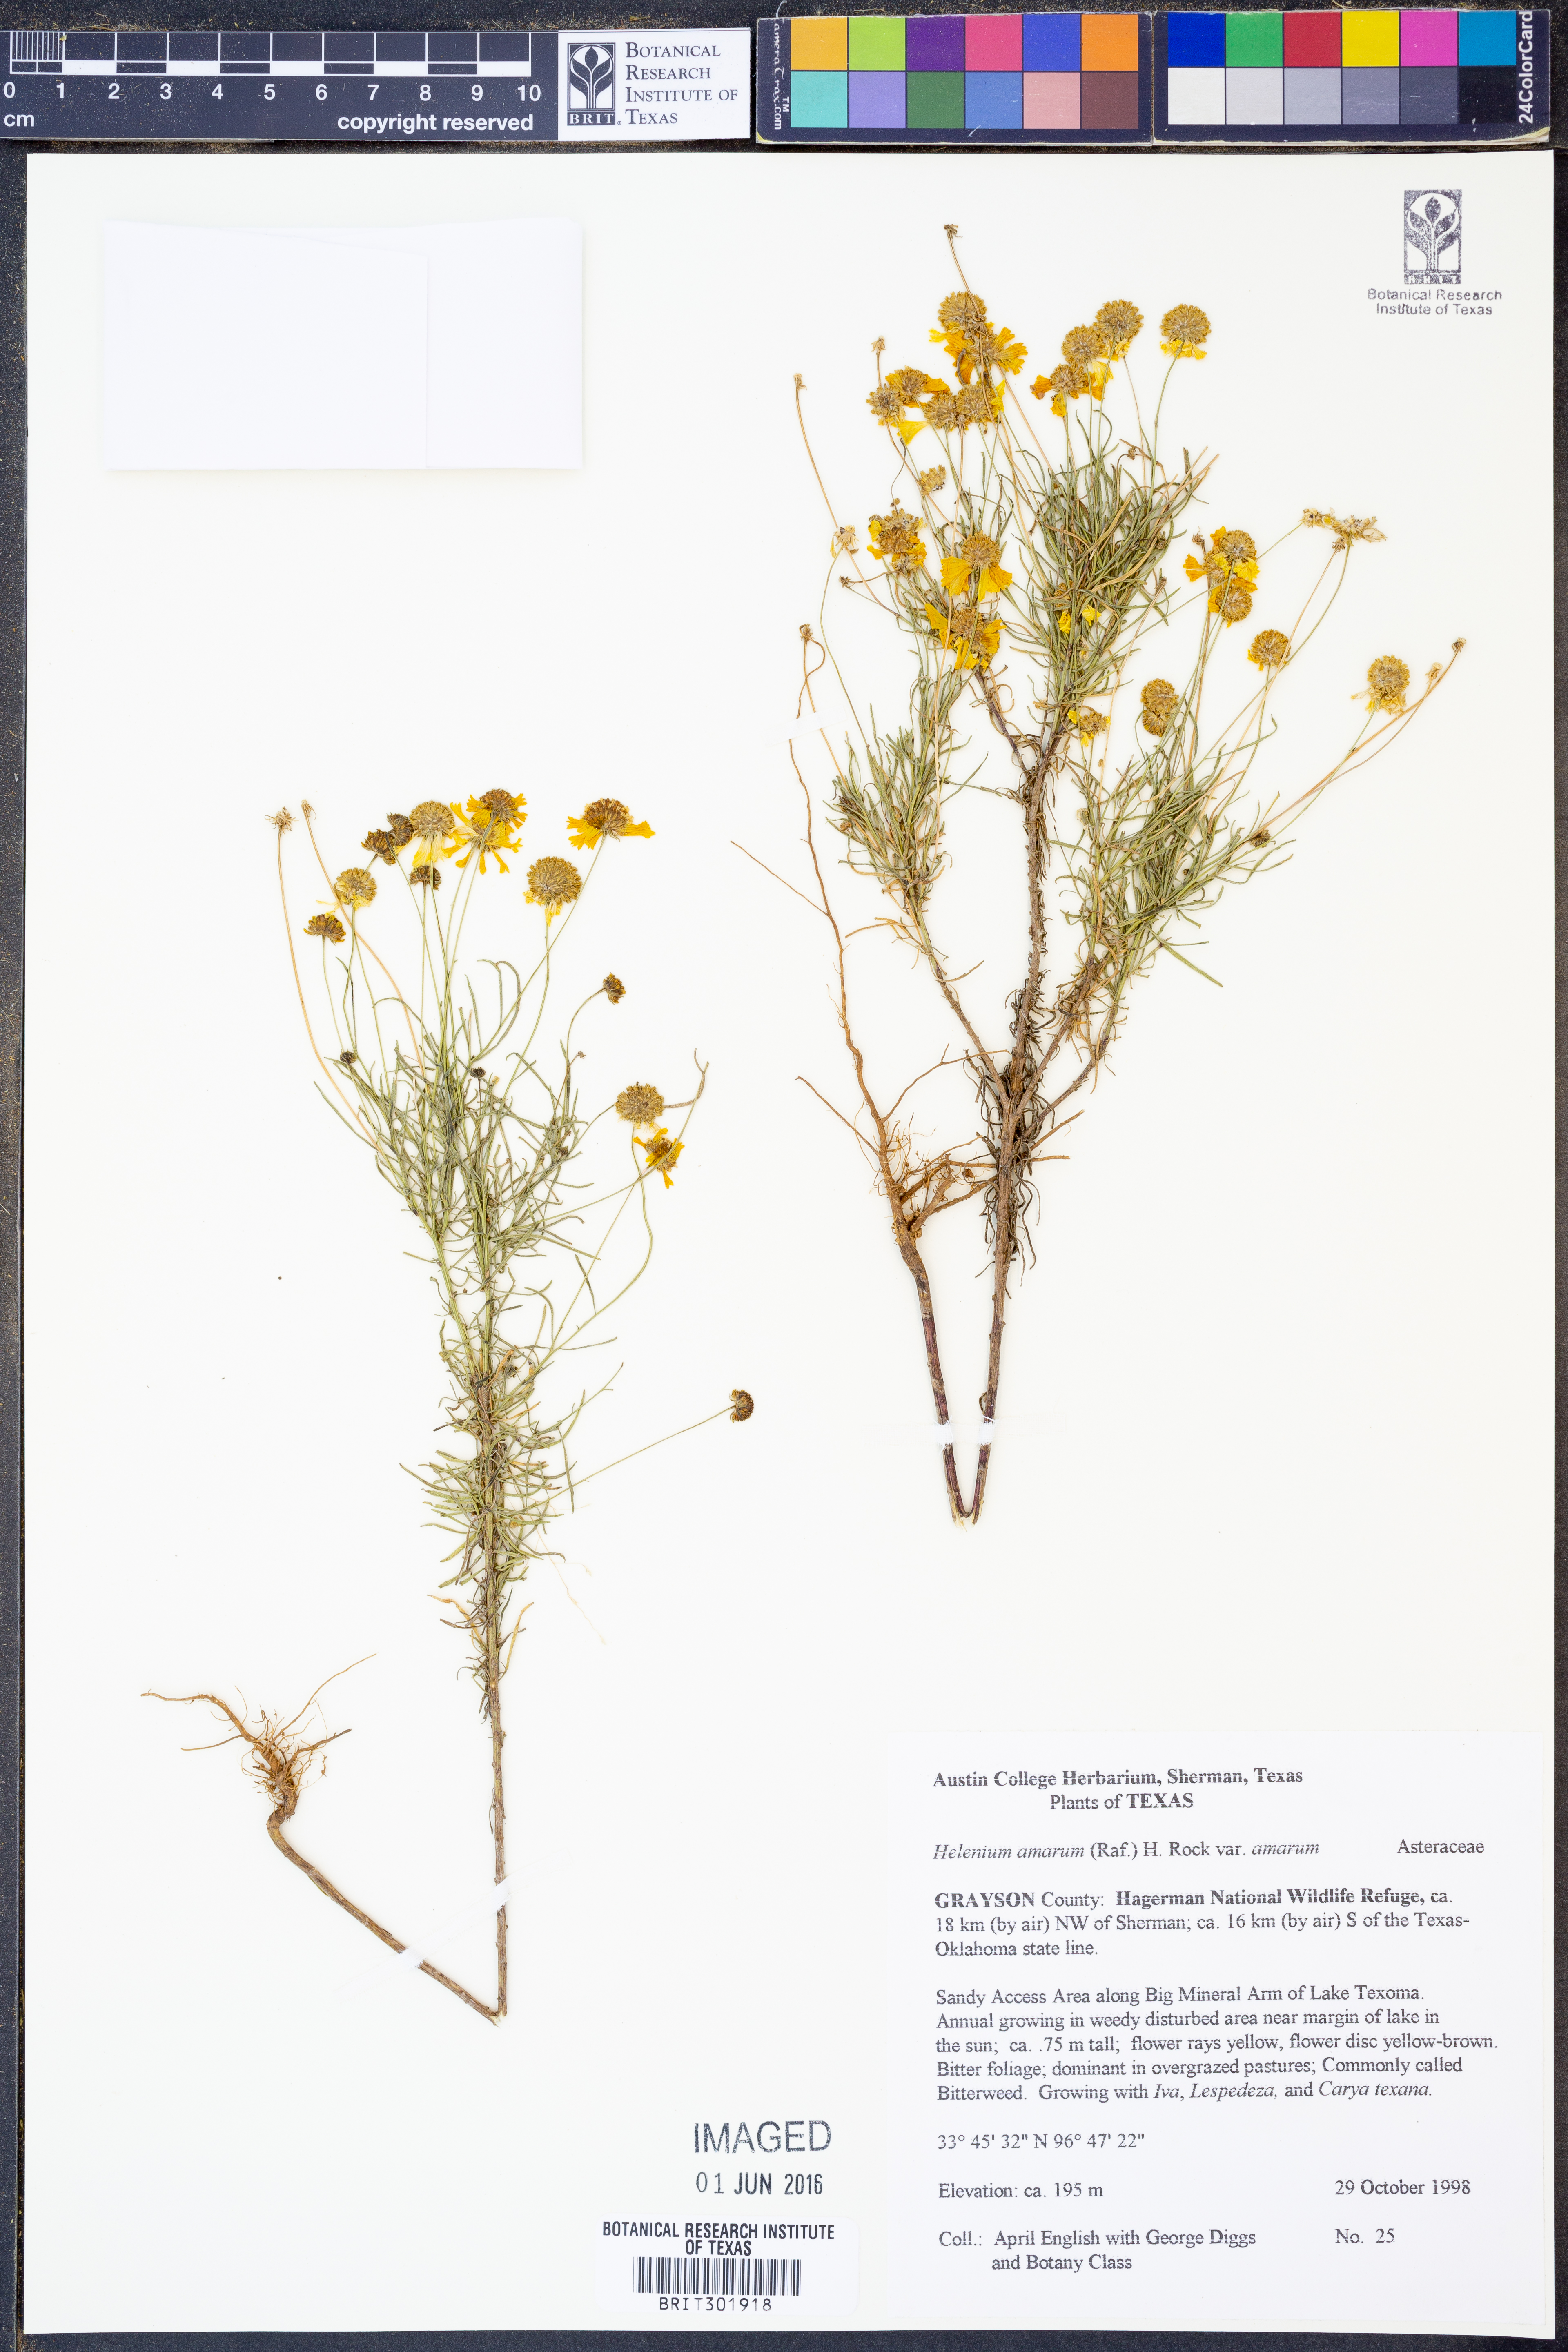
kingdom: Plantae
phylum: Tracheophyta
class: Magnoliopsida
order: Asterales
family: Asteraceae
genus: Helenium
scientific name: Helenium amarum
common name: Bitter sneezeweed
